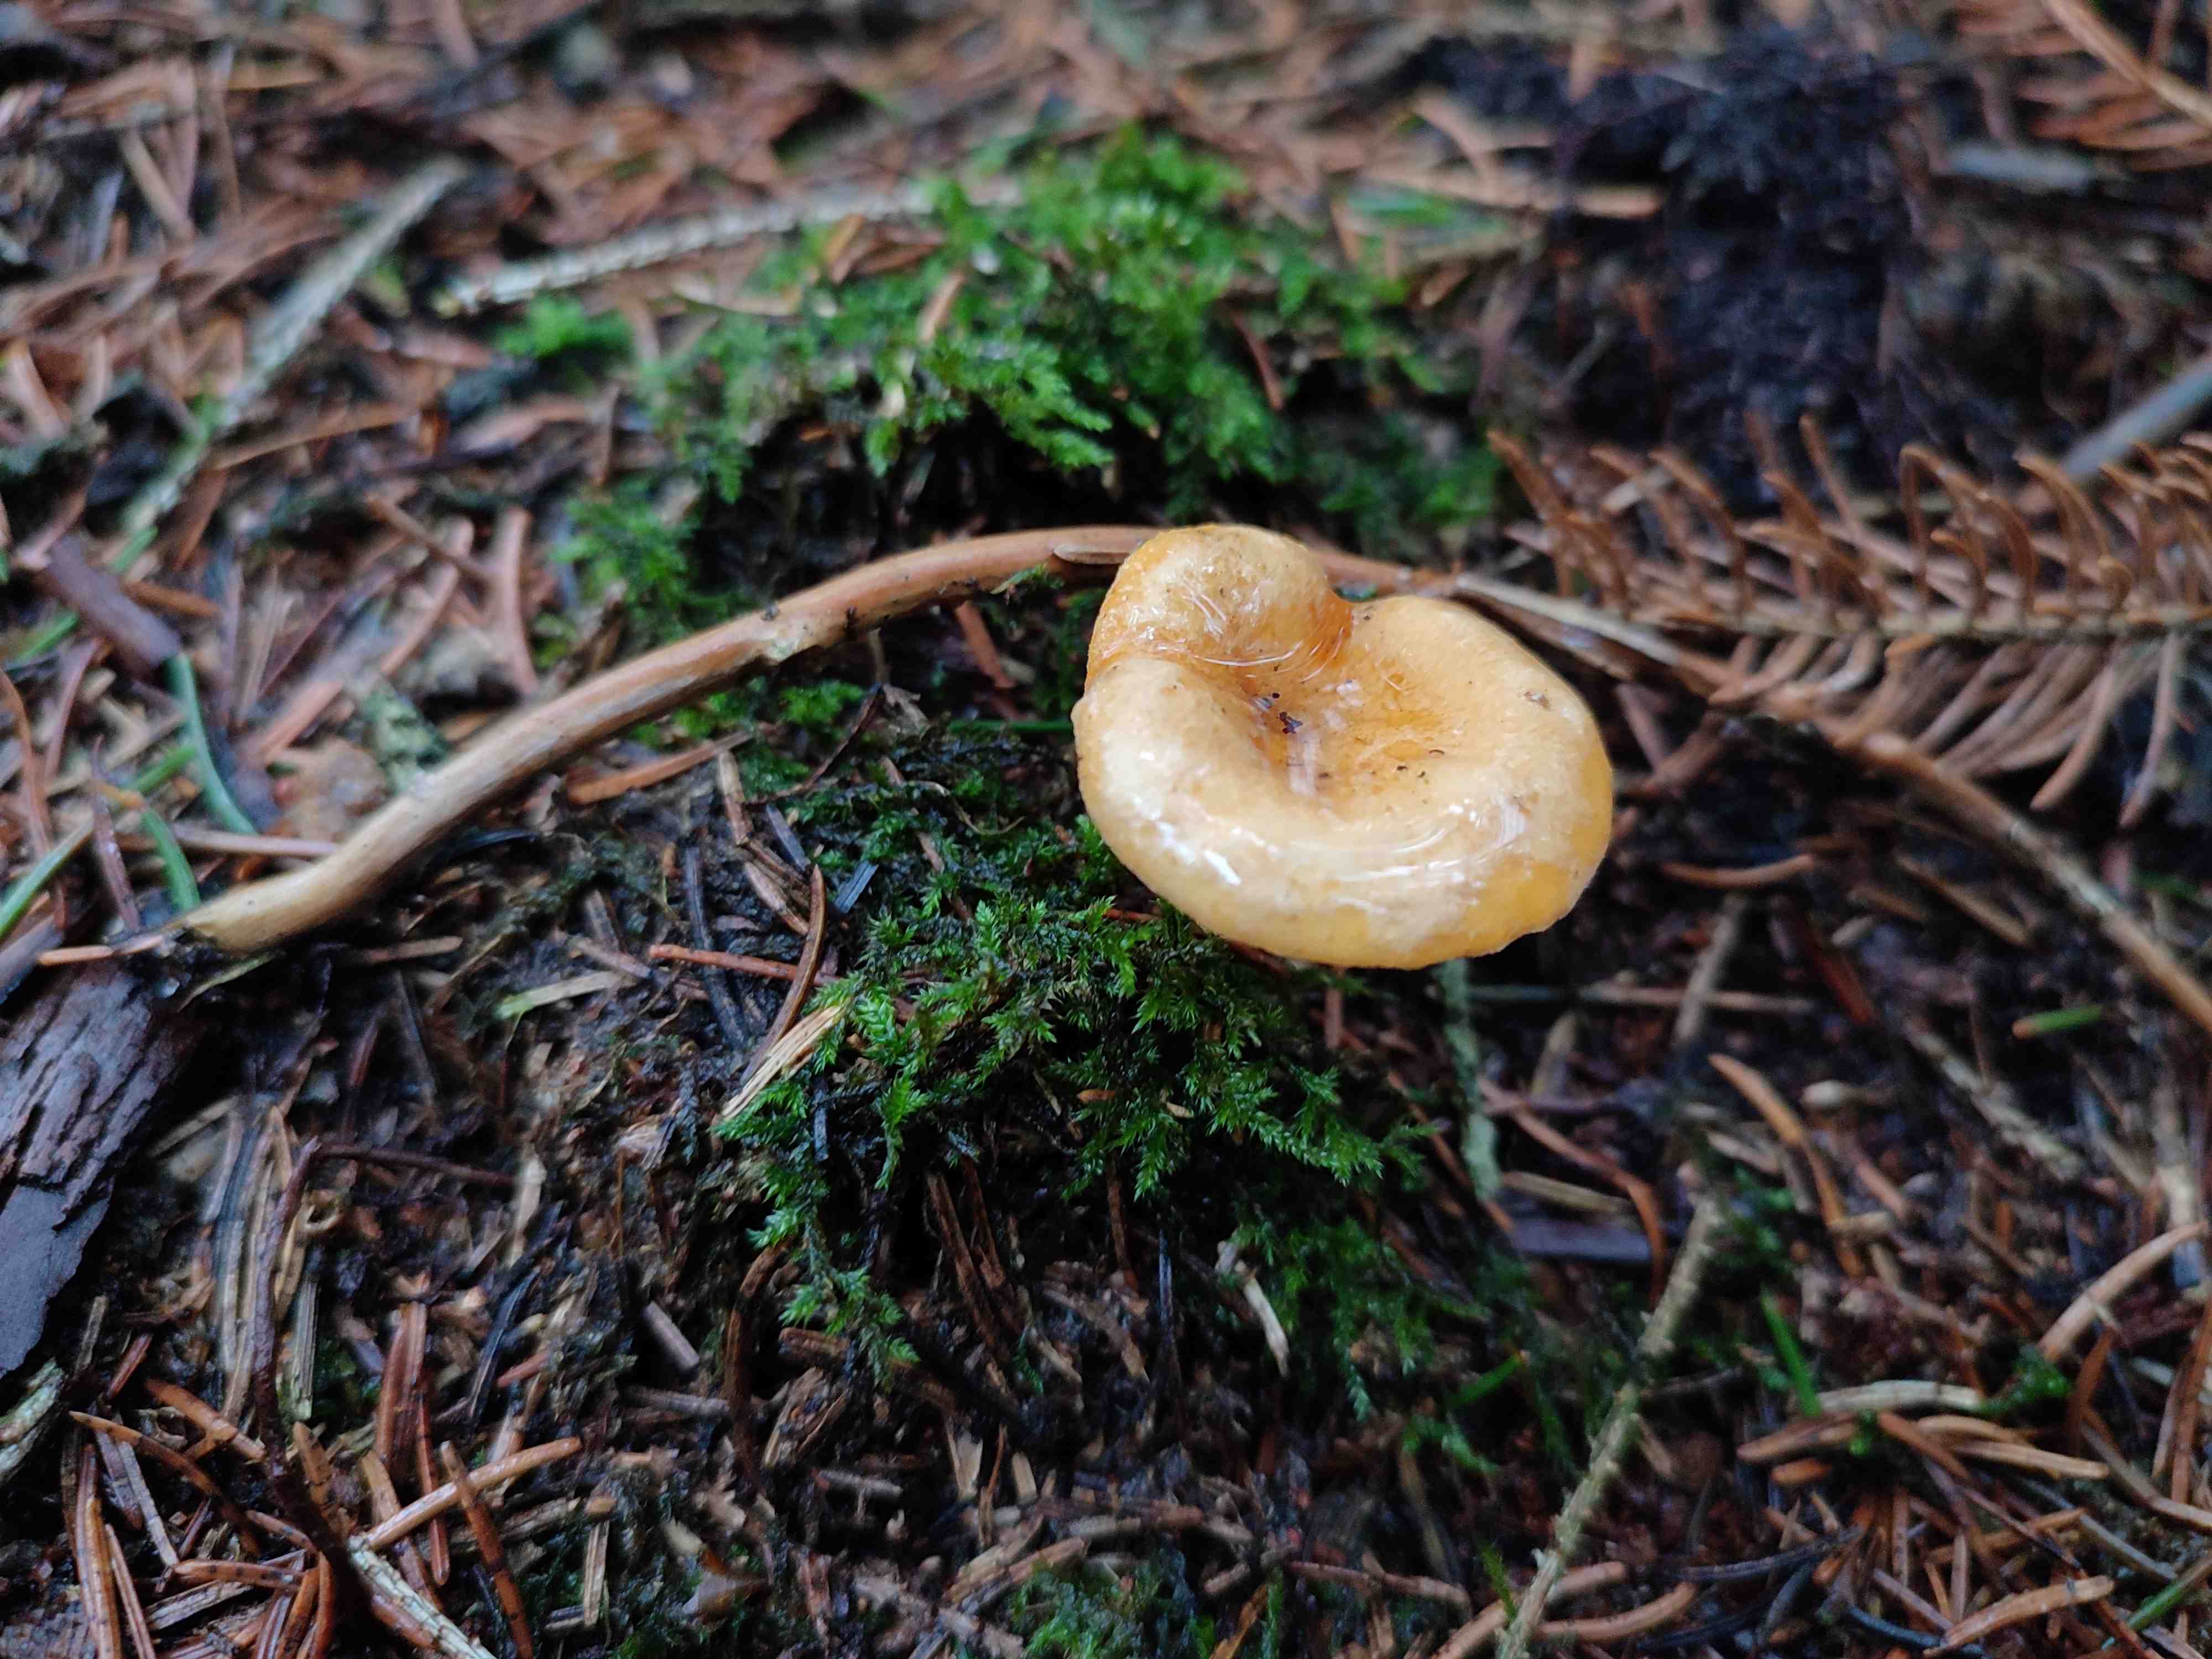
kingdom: Fungi
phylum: Basidiomycota
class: Agaricomycetes
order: Boletales
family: Hygrophoropsidaceae
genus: Hygrophoropsis
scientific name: Hygrophoropsis aurantiaca
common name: almindelig orangekantarel
